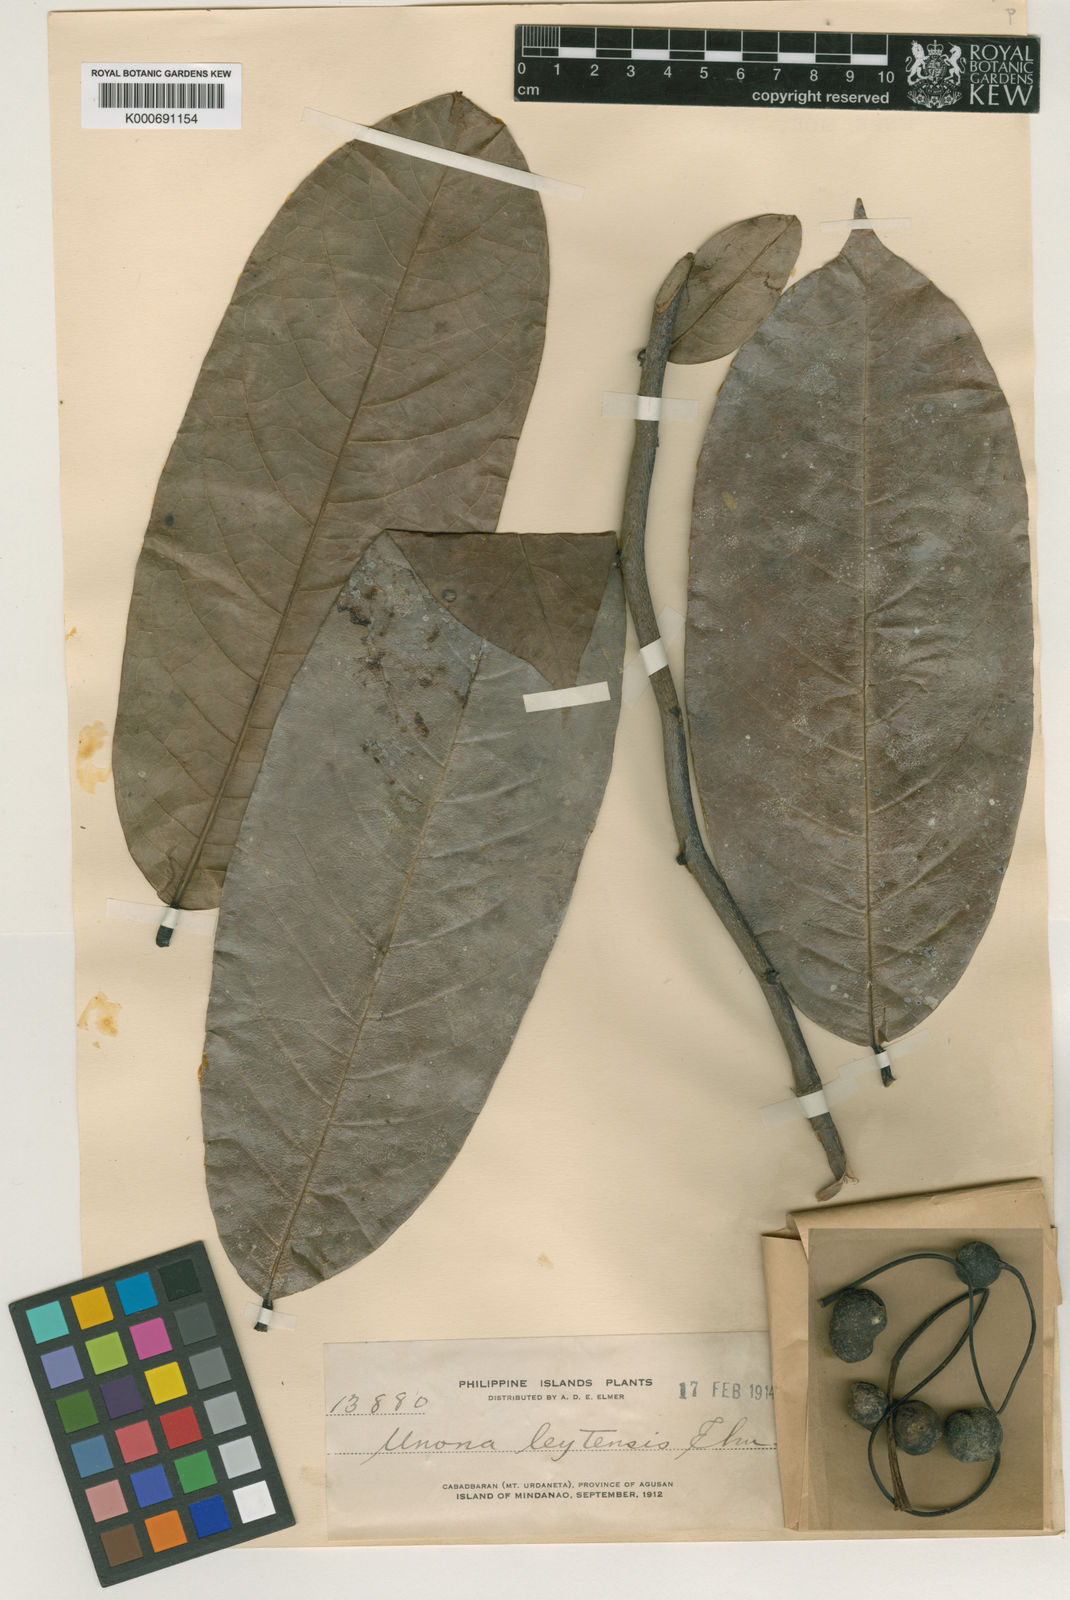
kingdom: Plantae
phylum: Tracheophyta
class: Magnoliopsida
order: Magnoliales
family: Annonaceae
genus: Uvaria
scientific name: Uvaria concava
